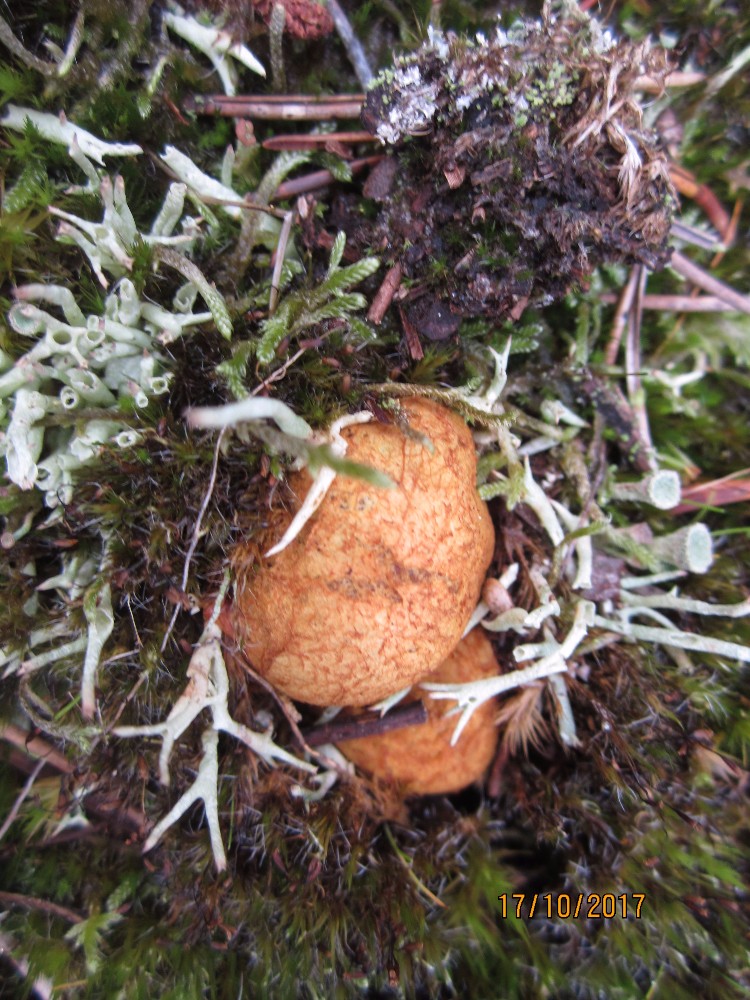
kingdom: Fungi
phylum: Basidiomycota
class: Agaricomycetes
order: Boletales
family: Rhizopogonaceae
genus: Rhizopogon
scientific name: Rhizopogon obtextus
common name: gul skægtrøffel
